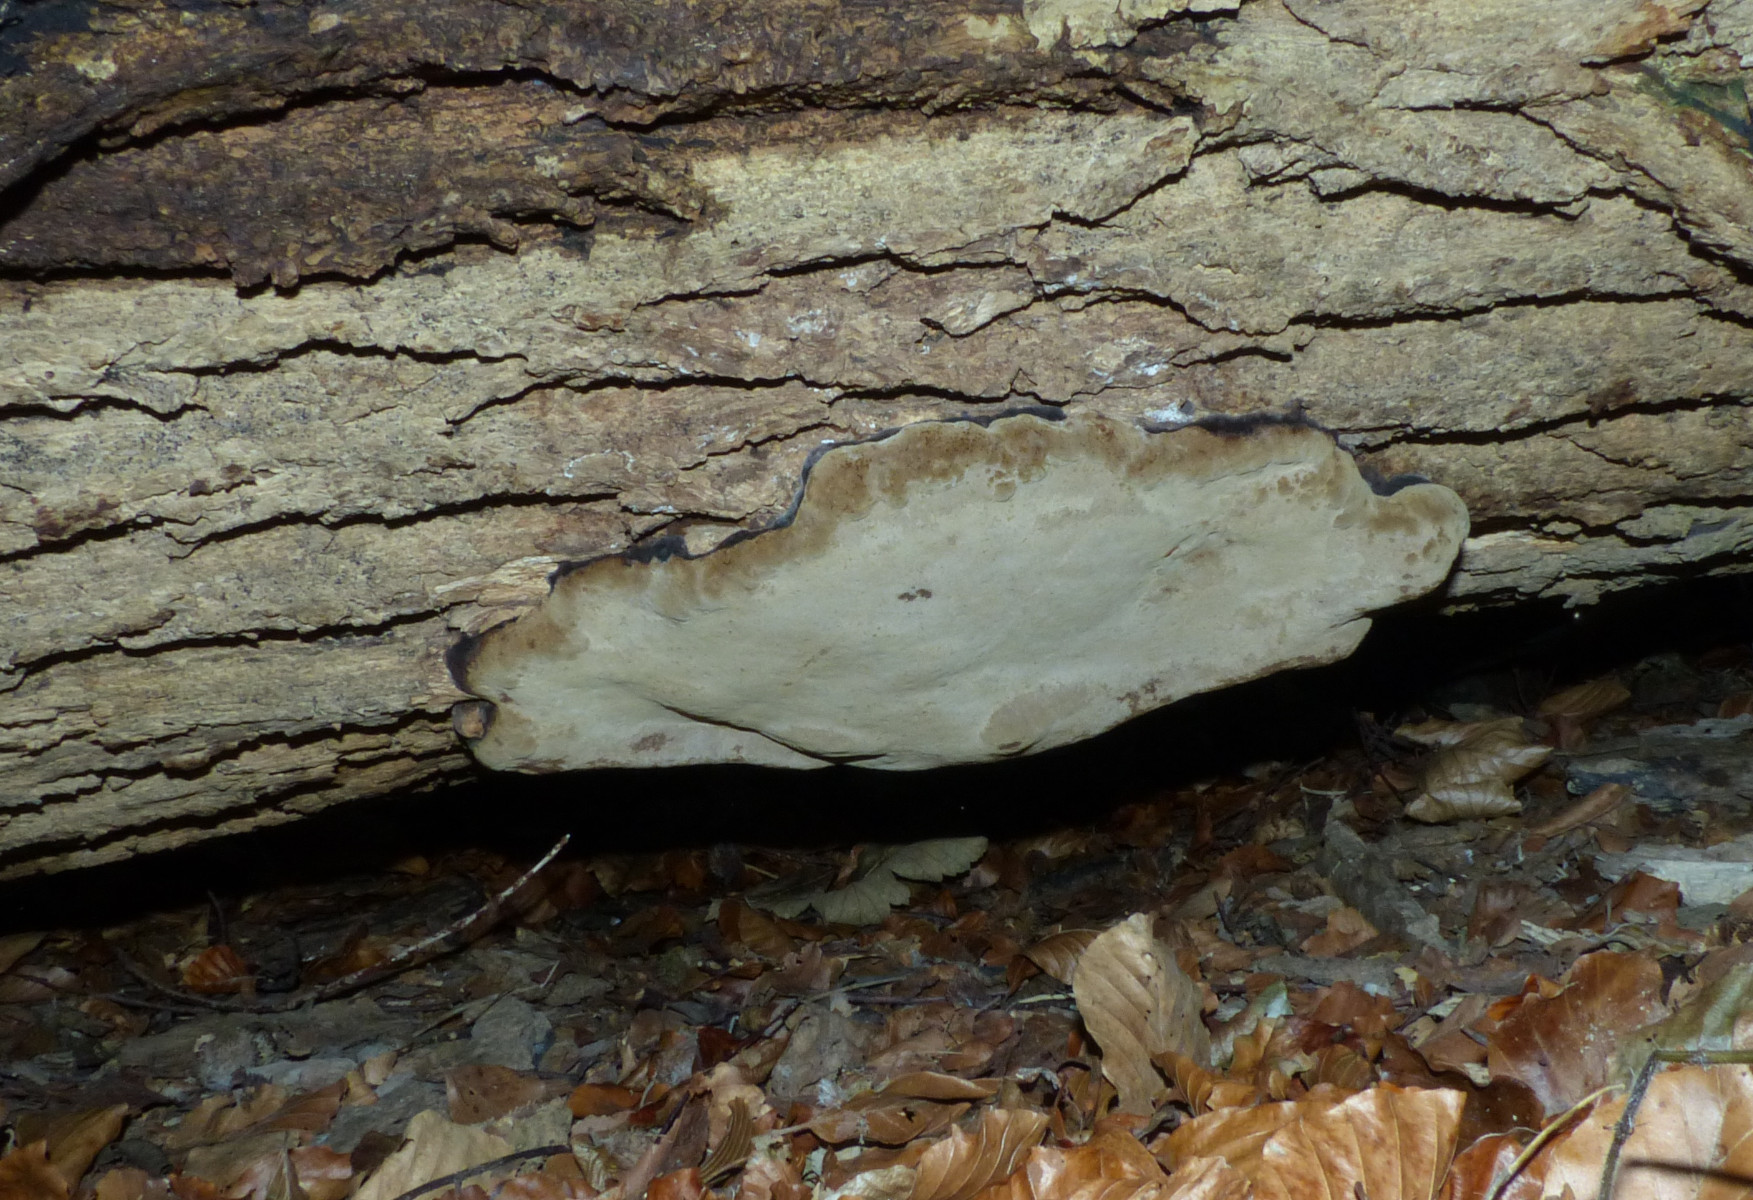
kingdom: Fungi
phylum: Basidiomycota
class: Agaricomycetes
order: Polyporales
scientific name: Polyporales
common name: poresvampordenen
